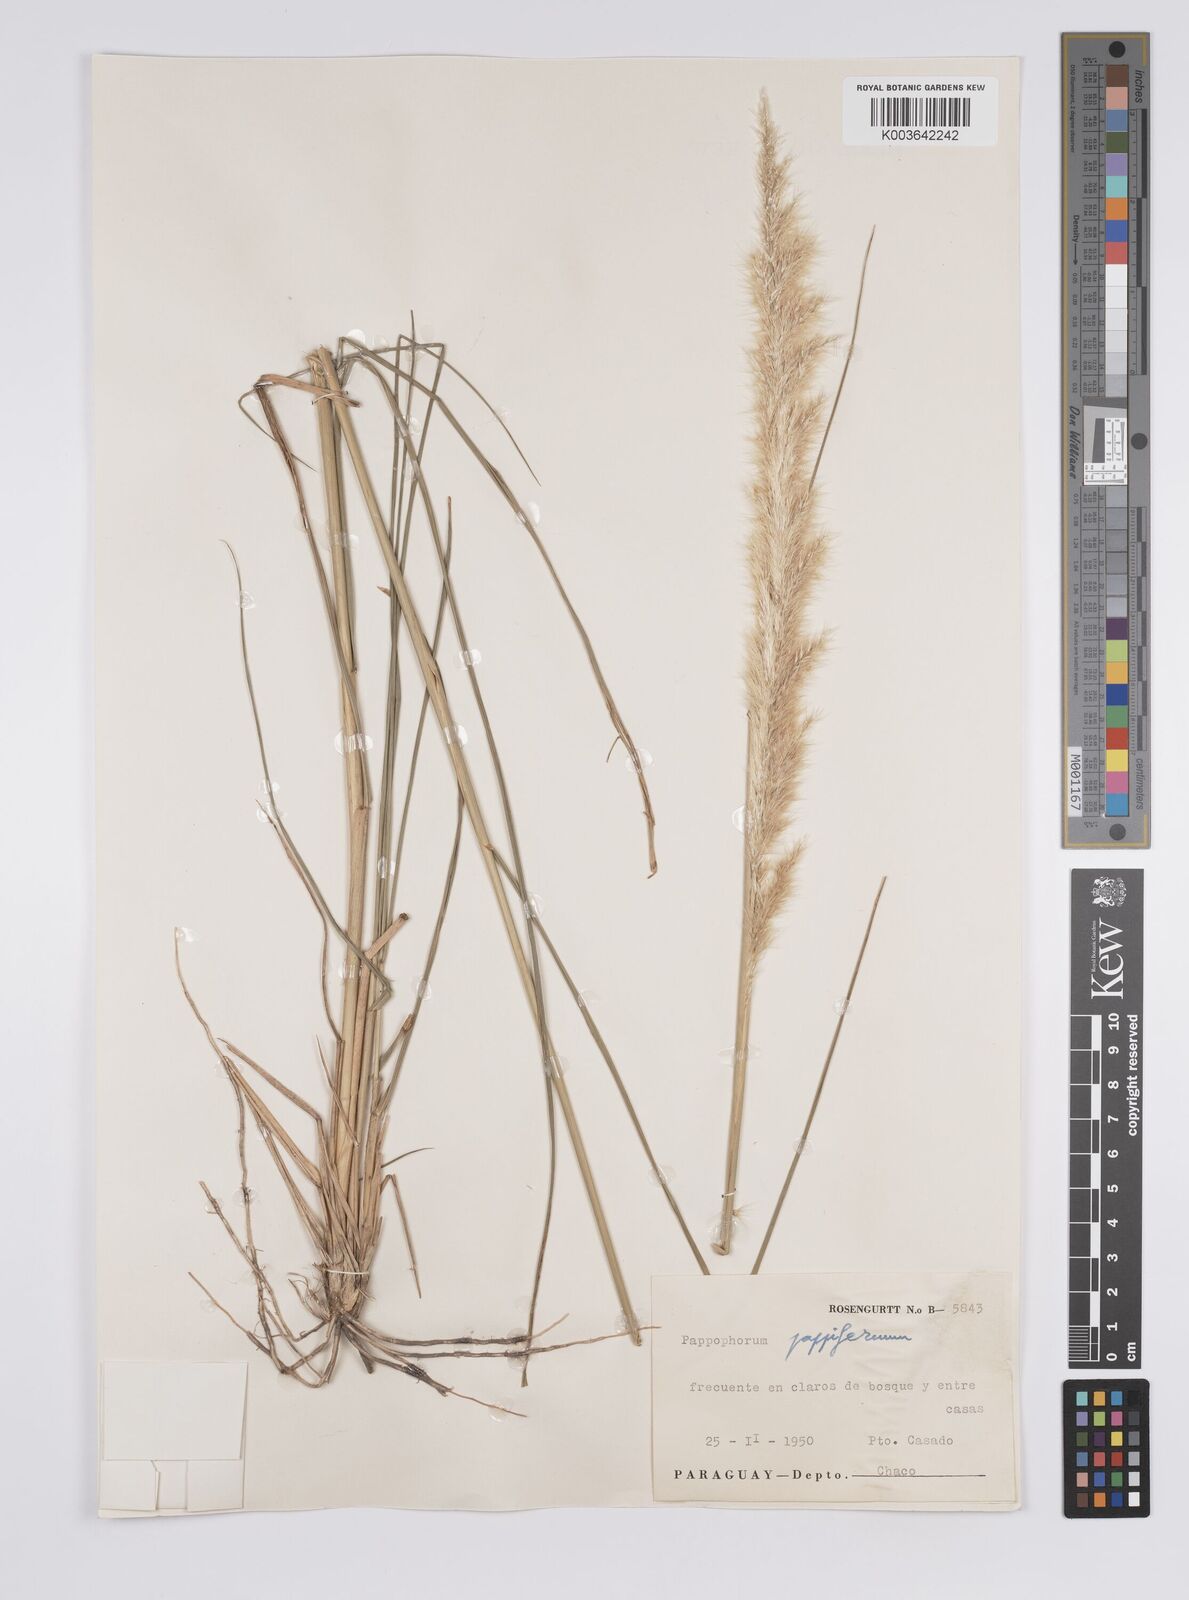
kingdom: Plantae
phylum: Tracheophyta
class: Liliopsida
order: Poales
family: Poaceae
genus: Pappophorum
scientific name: Pappophorum pappiferum
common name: Crabgrass
